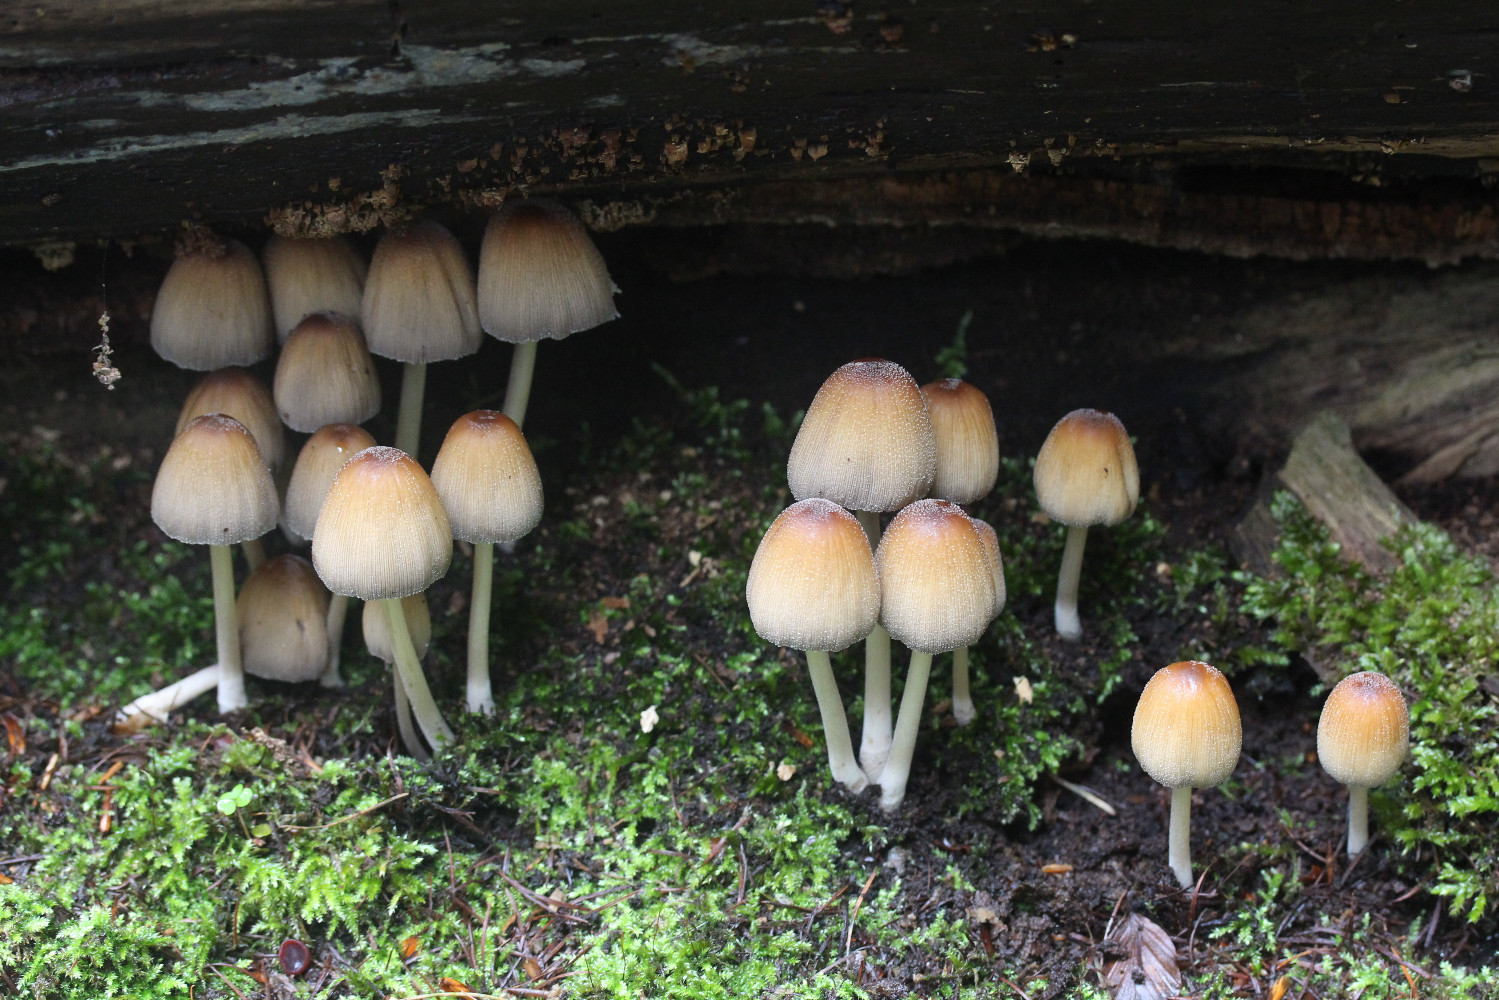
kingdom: Fungi
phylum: Basidiomycota
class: Agaricomycetes
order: Agaricales
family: Psathyrellaceae
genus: Coprinellus
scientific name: Coprinellus micaceus
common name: glimmer-blækhat
